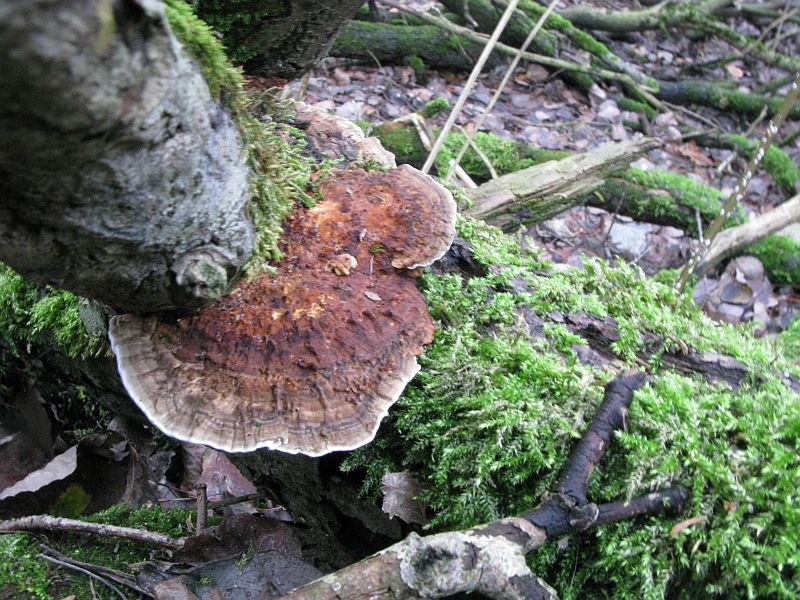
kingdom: Fungi
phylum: Basidiomycota
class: Agaricomycetes
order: Polyporales
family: Polyporaceae
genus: Daedaleopsis
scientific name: Daedaleopsis confragosa
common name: rødmende læderporesvamp
